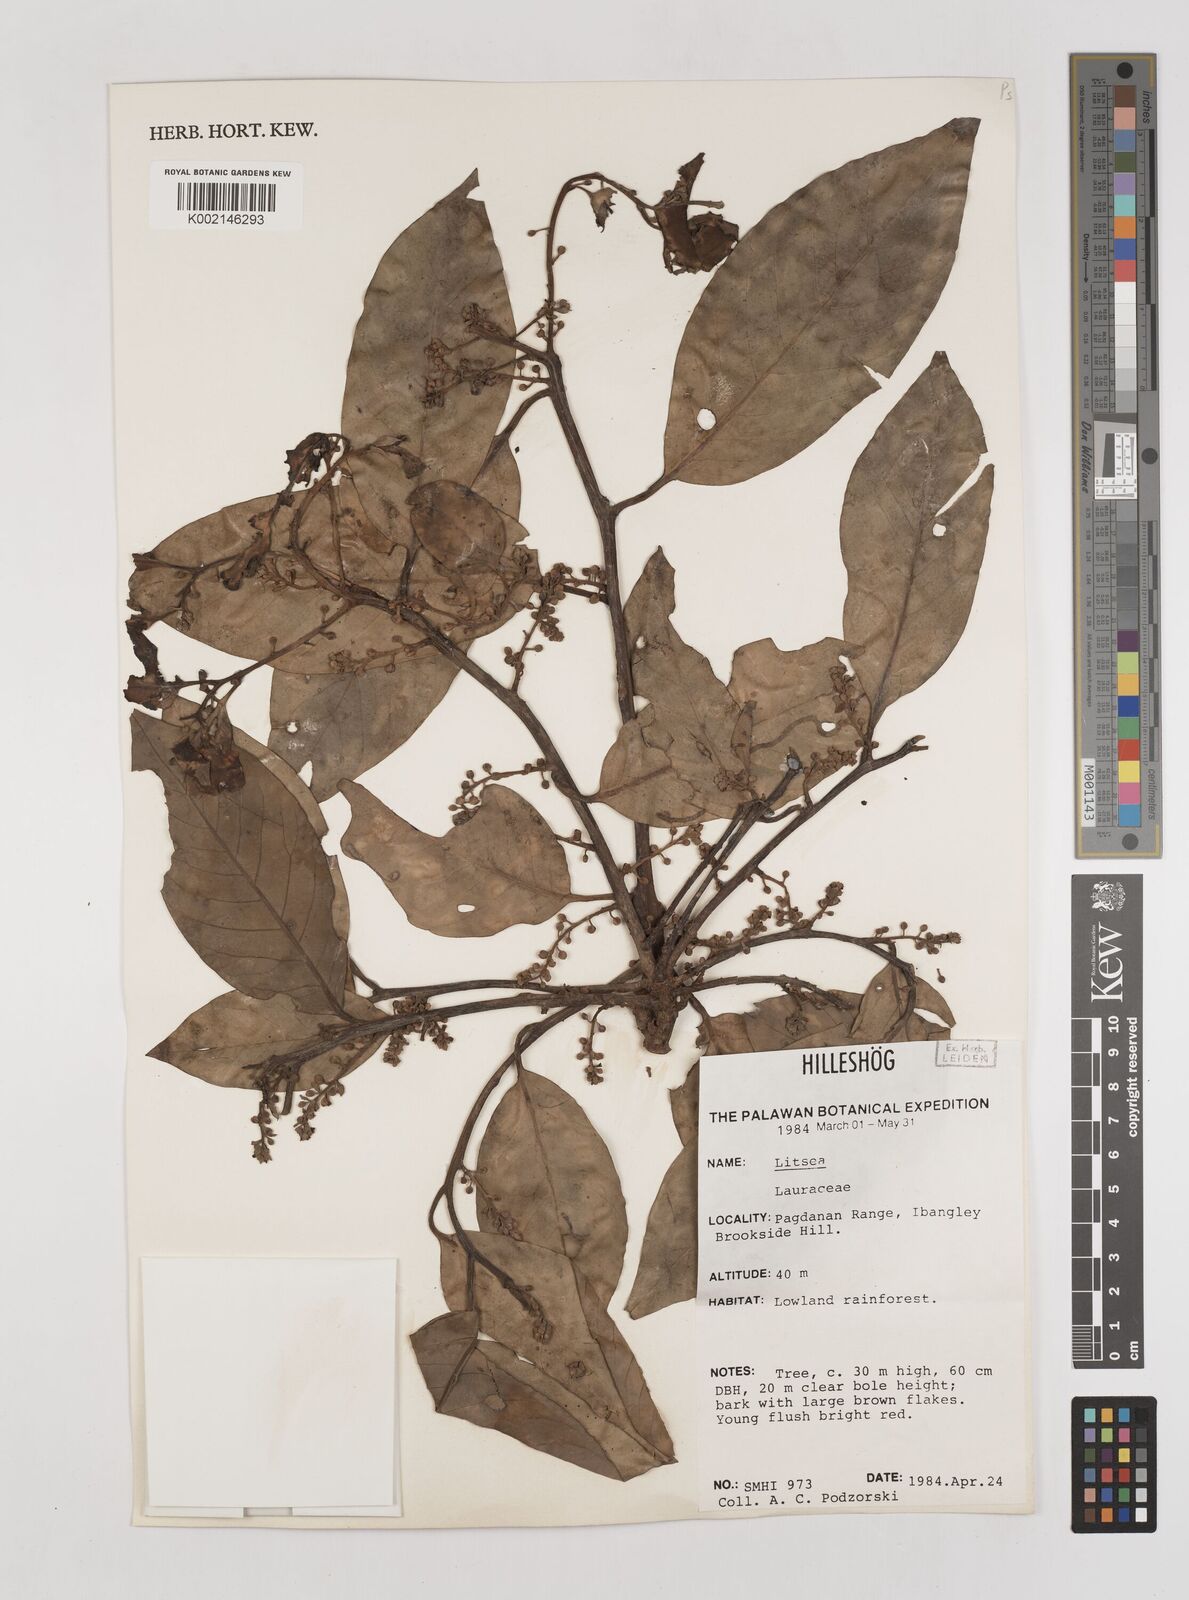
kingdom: Plantae
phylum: Tracheophyta
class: Magnoliopsida
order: Laurales
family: Lauraceae
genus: Litsea
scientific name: Litsea
